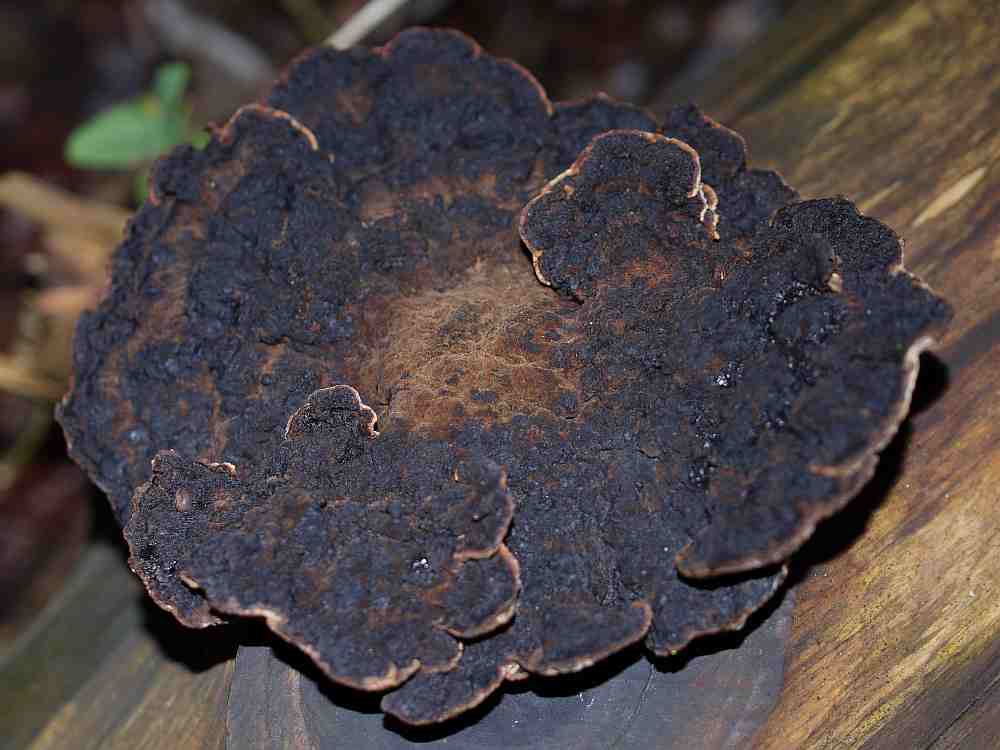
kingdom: Fungi
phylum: Basidiomycota
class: Agaricomycetes
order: Polyporales
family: Ischnodermataceae
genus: Ischnoderma
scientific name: Ischnoderma benzoinum
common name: gran-tjæreporesvamp
